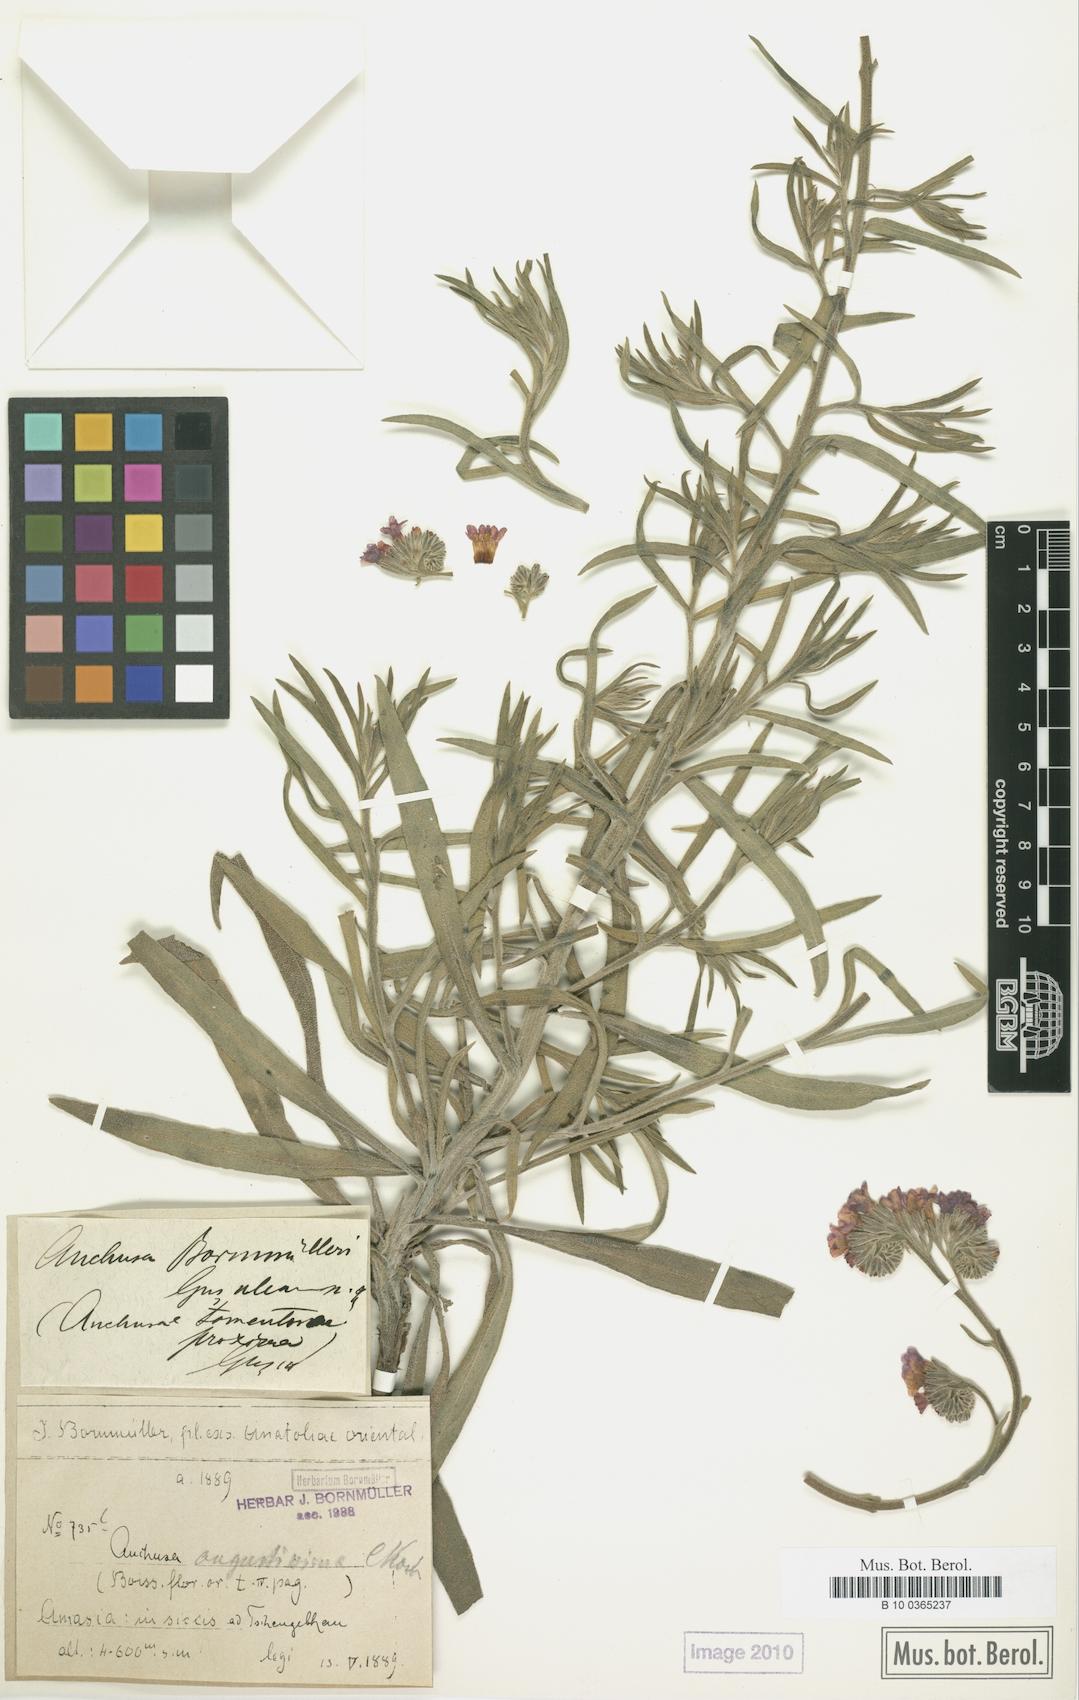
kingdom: Plantae
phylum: Tracheophyta
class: Magnoliopsida
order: Boraginales
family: Boraginaceae
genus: Anchusa
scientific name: Anchusa leptophylla
